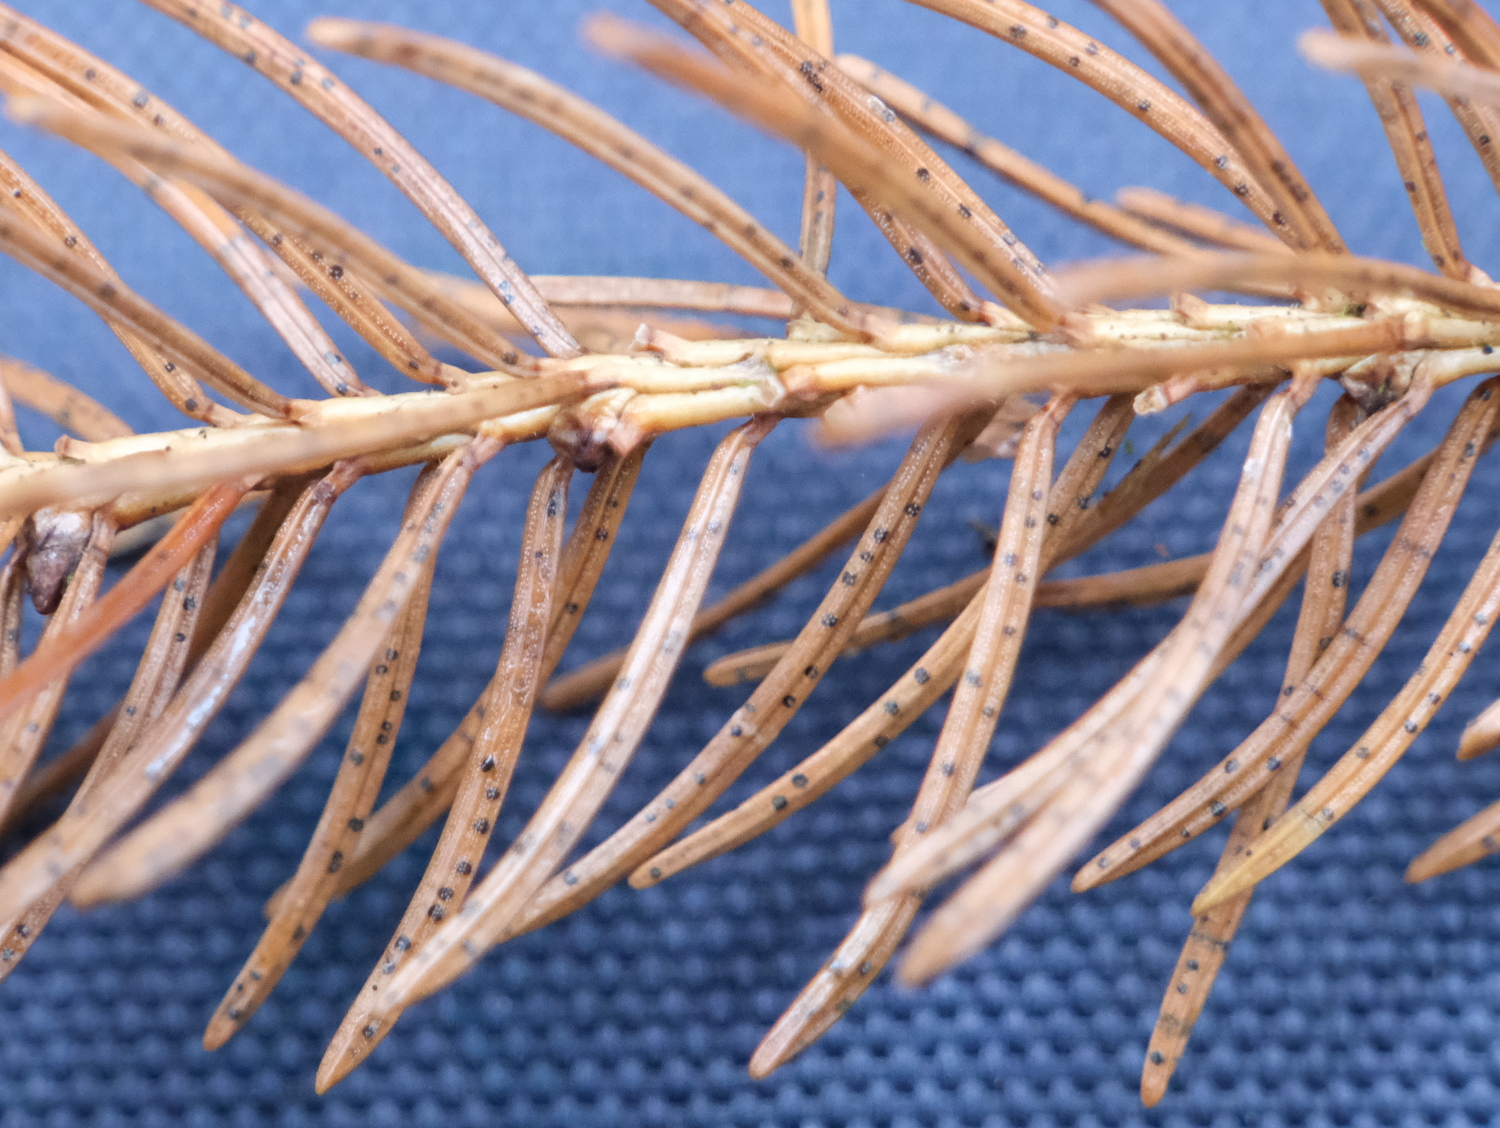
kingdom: Fungi
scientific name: Fungi
